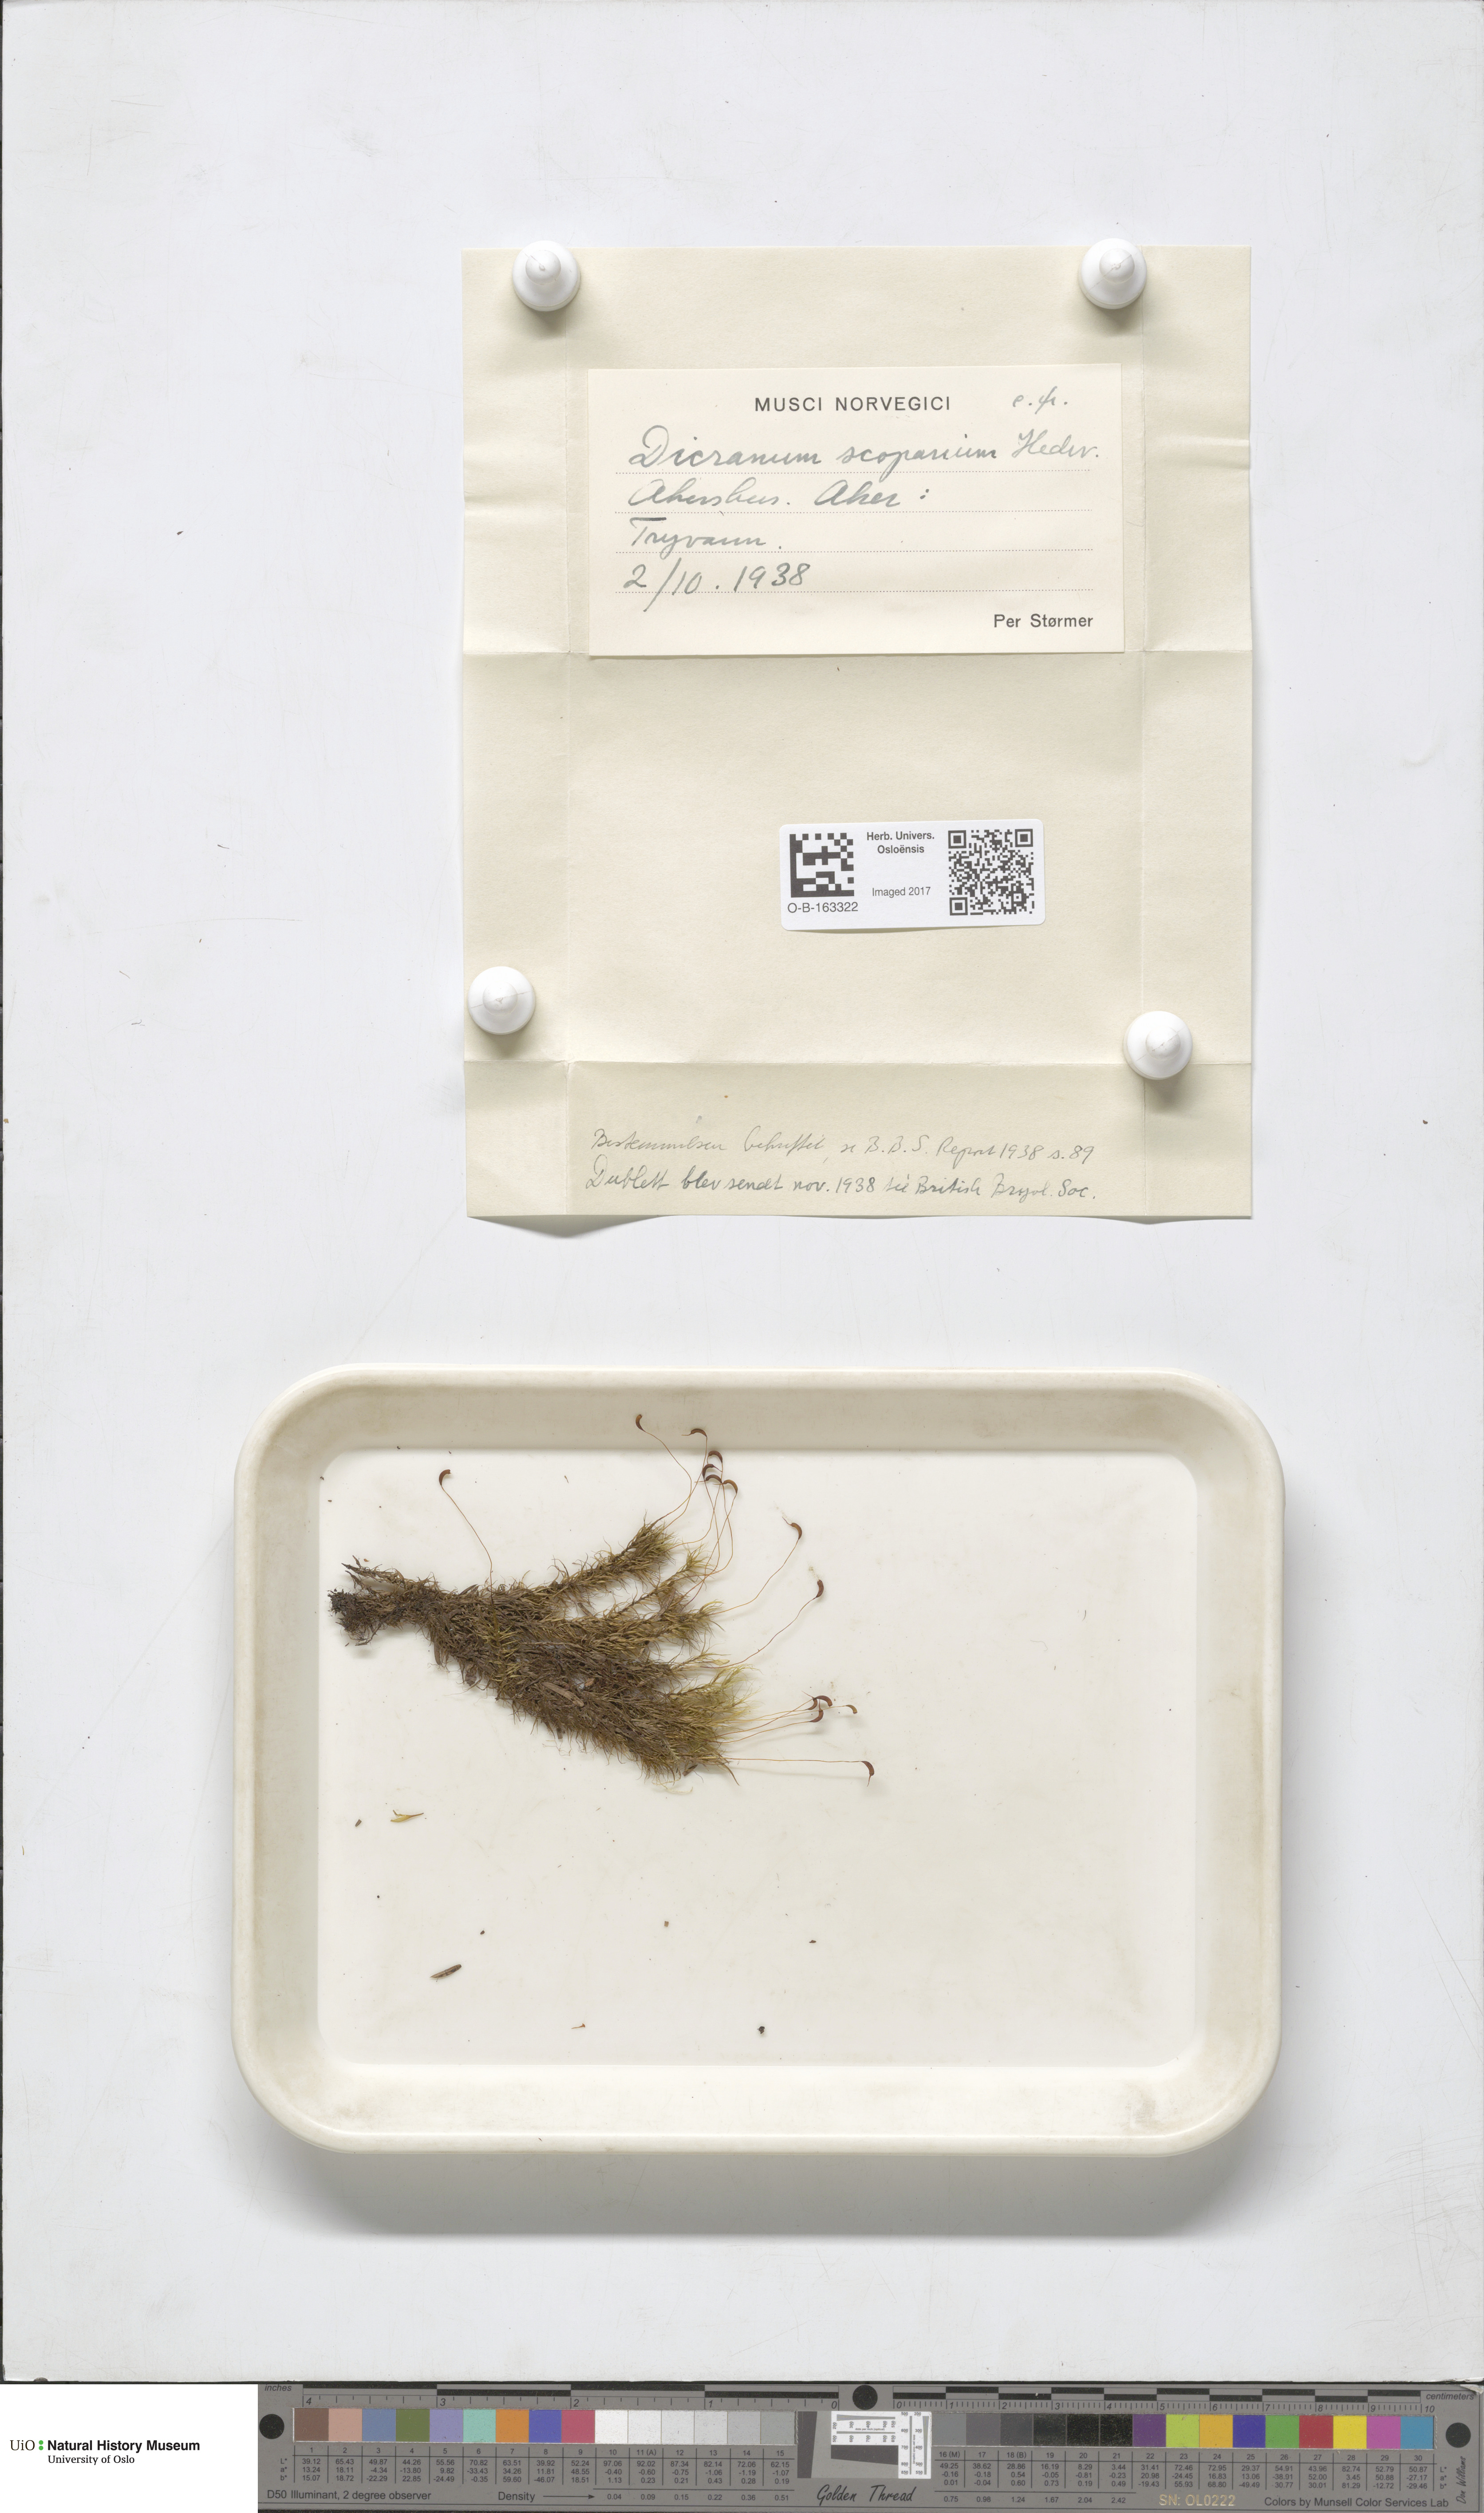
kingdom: Plantae
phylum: Bryophyta
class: Bryopsida
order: Dicranales
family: Dicranaceae
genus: Dicranum
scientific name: Dicranum scoparium
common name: Broom fork-moss
